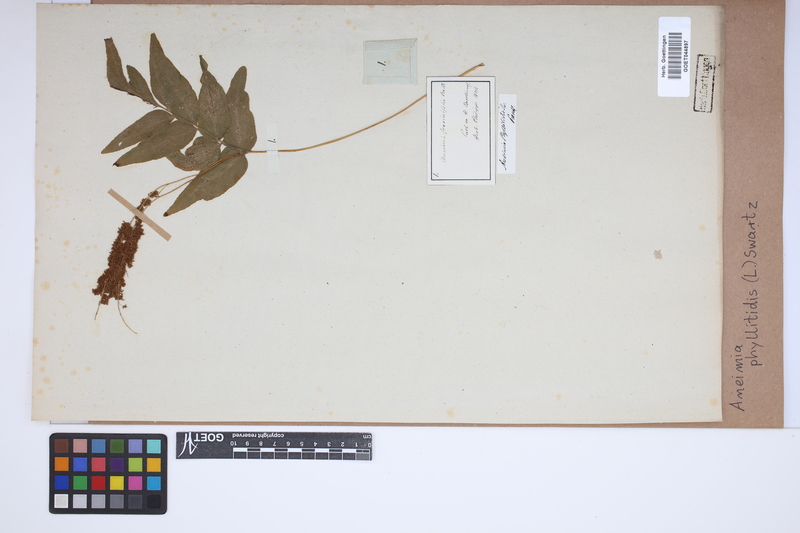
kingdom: Plantae
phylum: Tracheophyta
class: Polypodiopsida
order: Schizaeales
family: Anemiaceae
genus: Anemia
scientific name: Anemia phyllitidis
